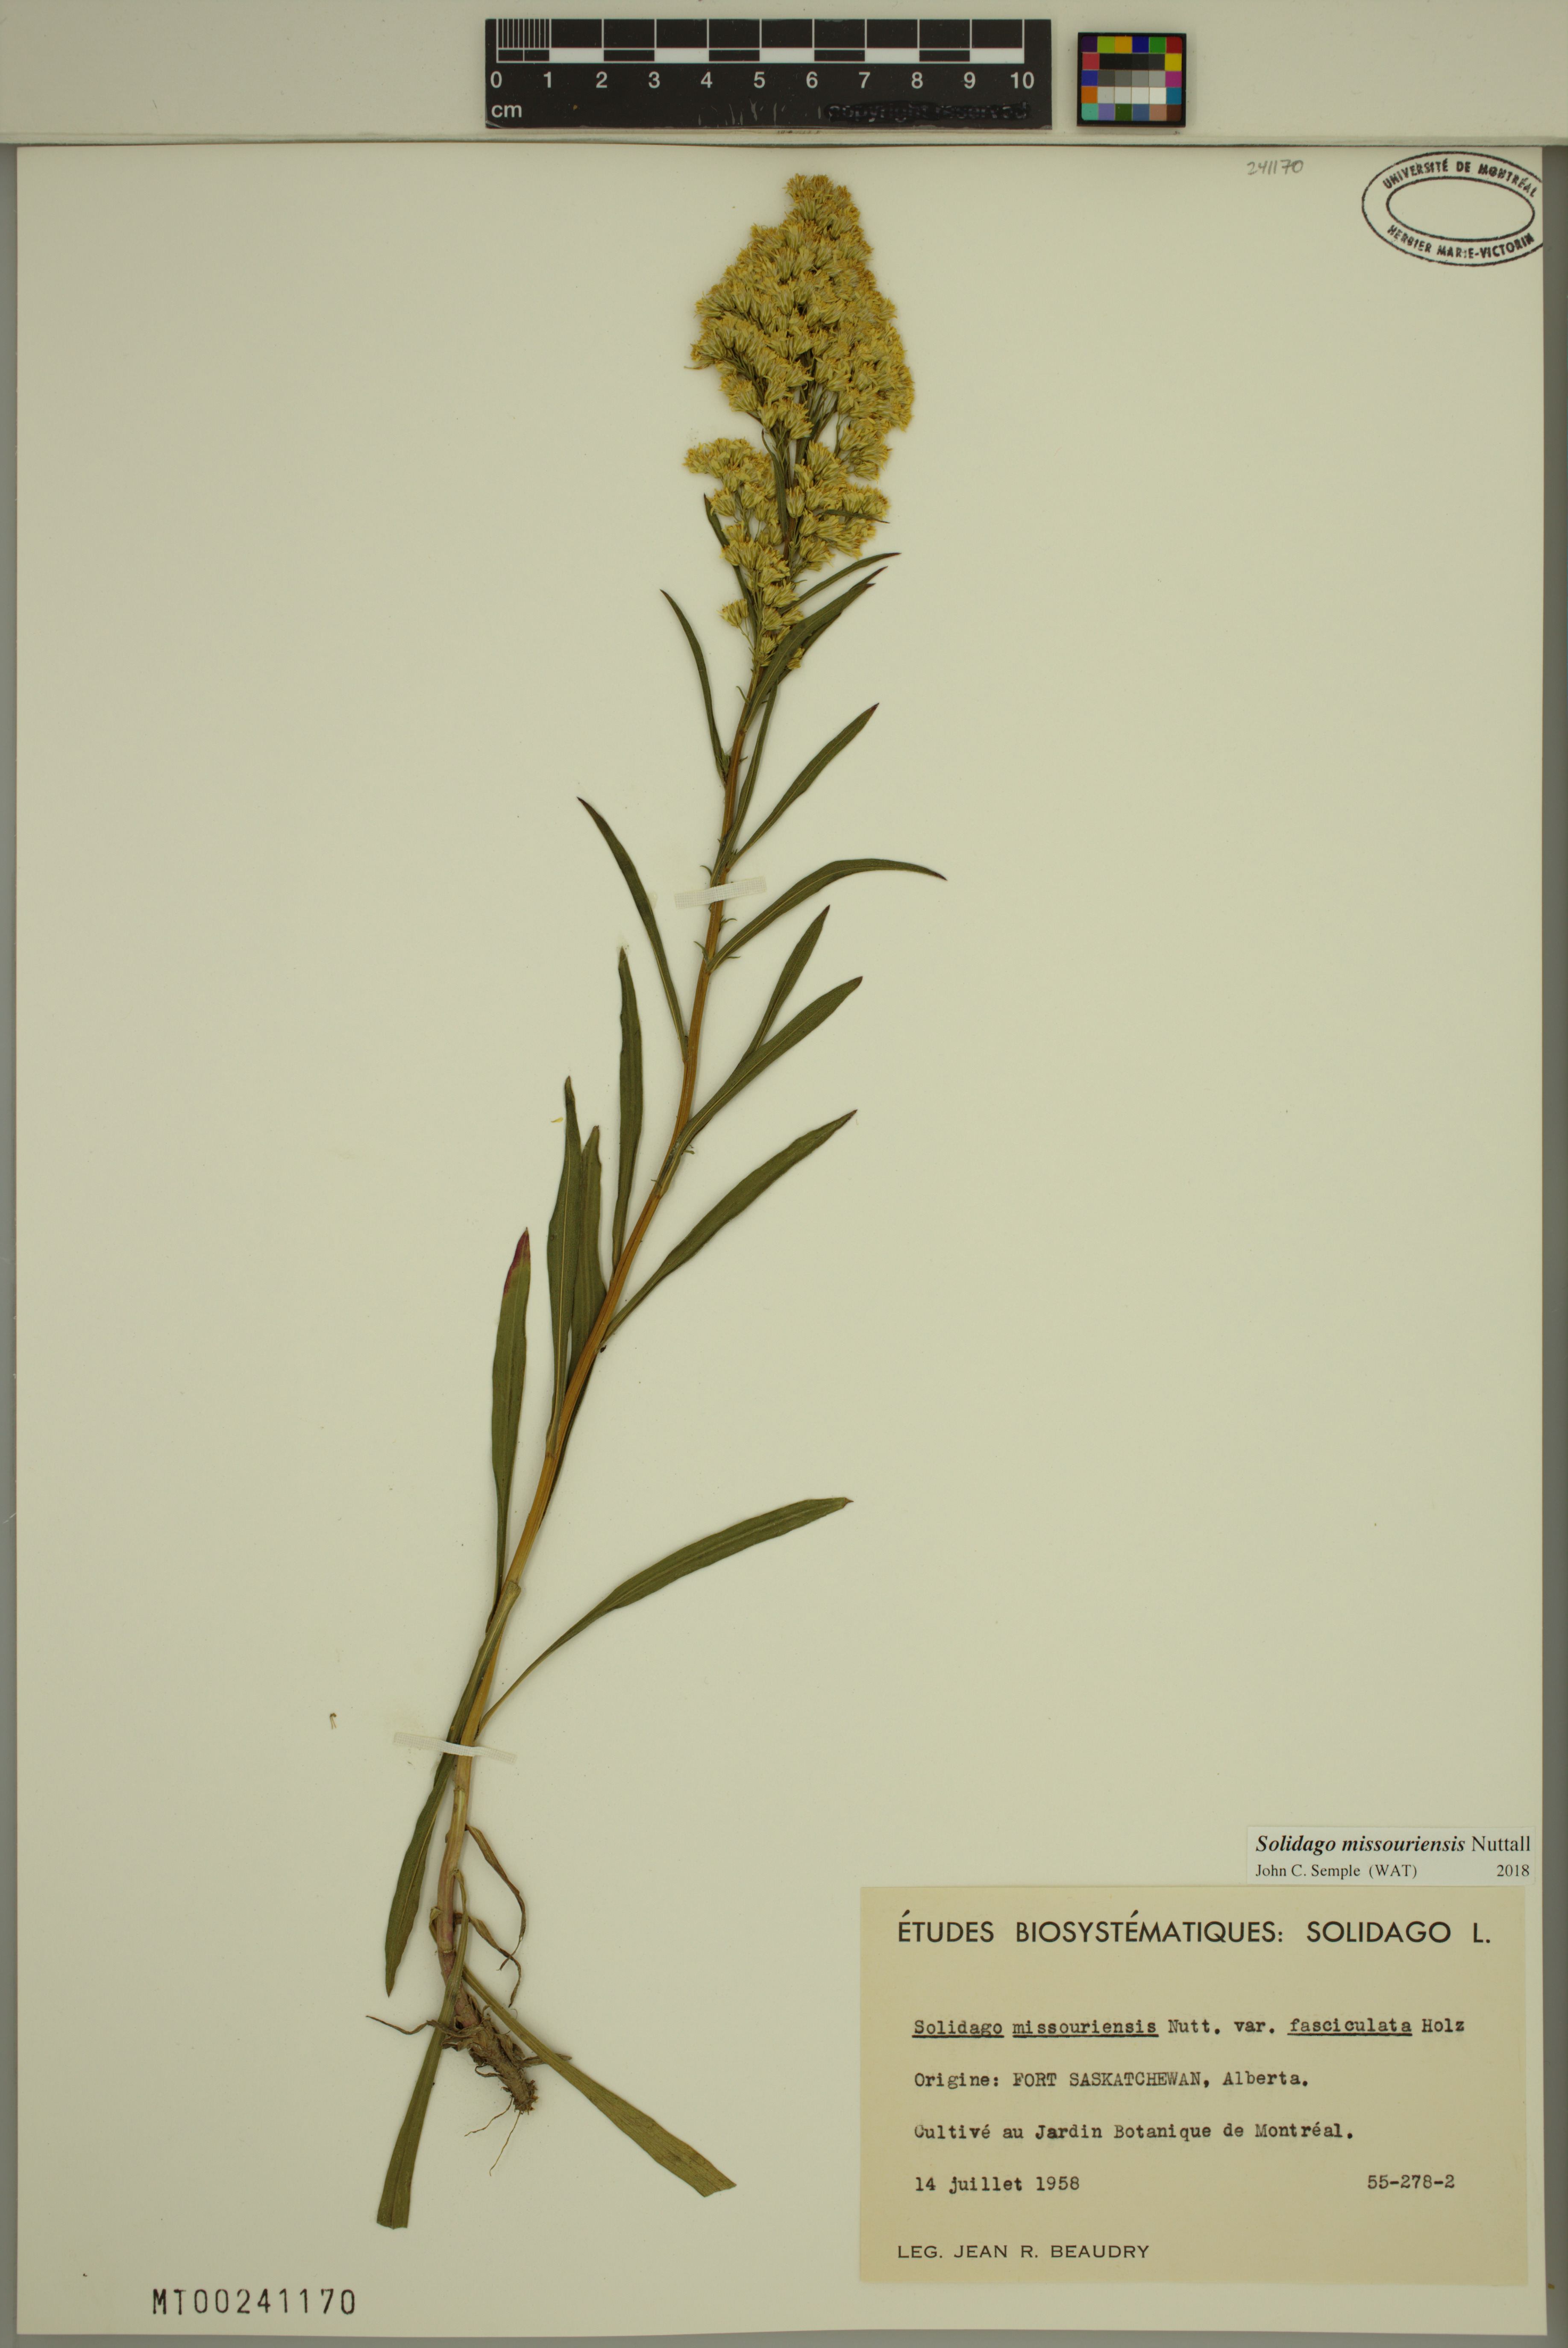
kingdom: Plantae
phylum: Tracheophyta
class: Magnoliopsida
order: Asterales
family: Asteraceae
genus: Solidago
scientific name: Solidago missouriensis
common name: Prairie goldenrod
